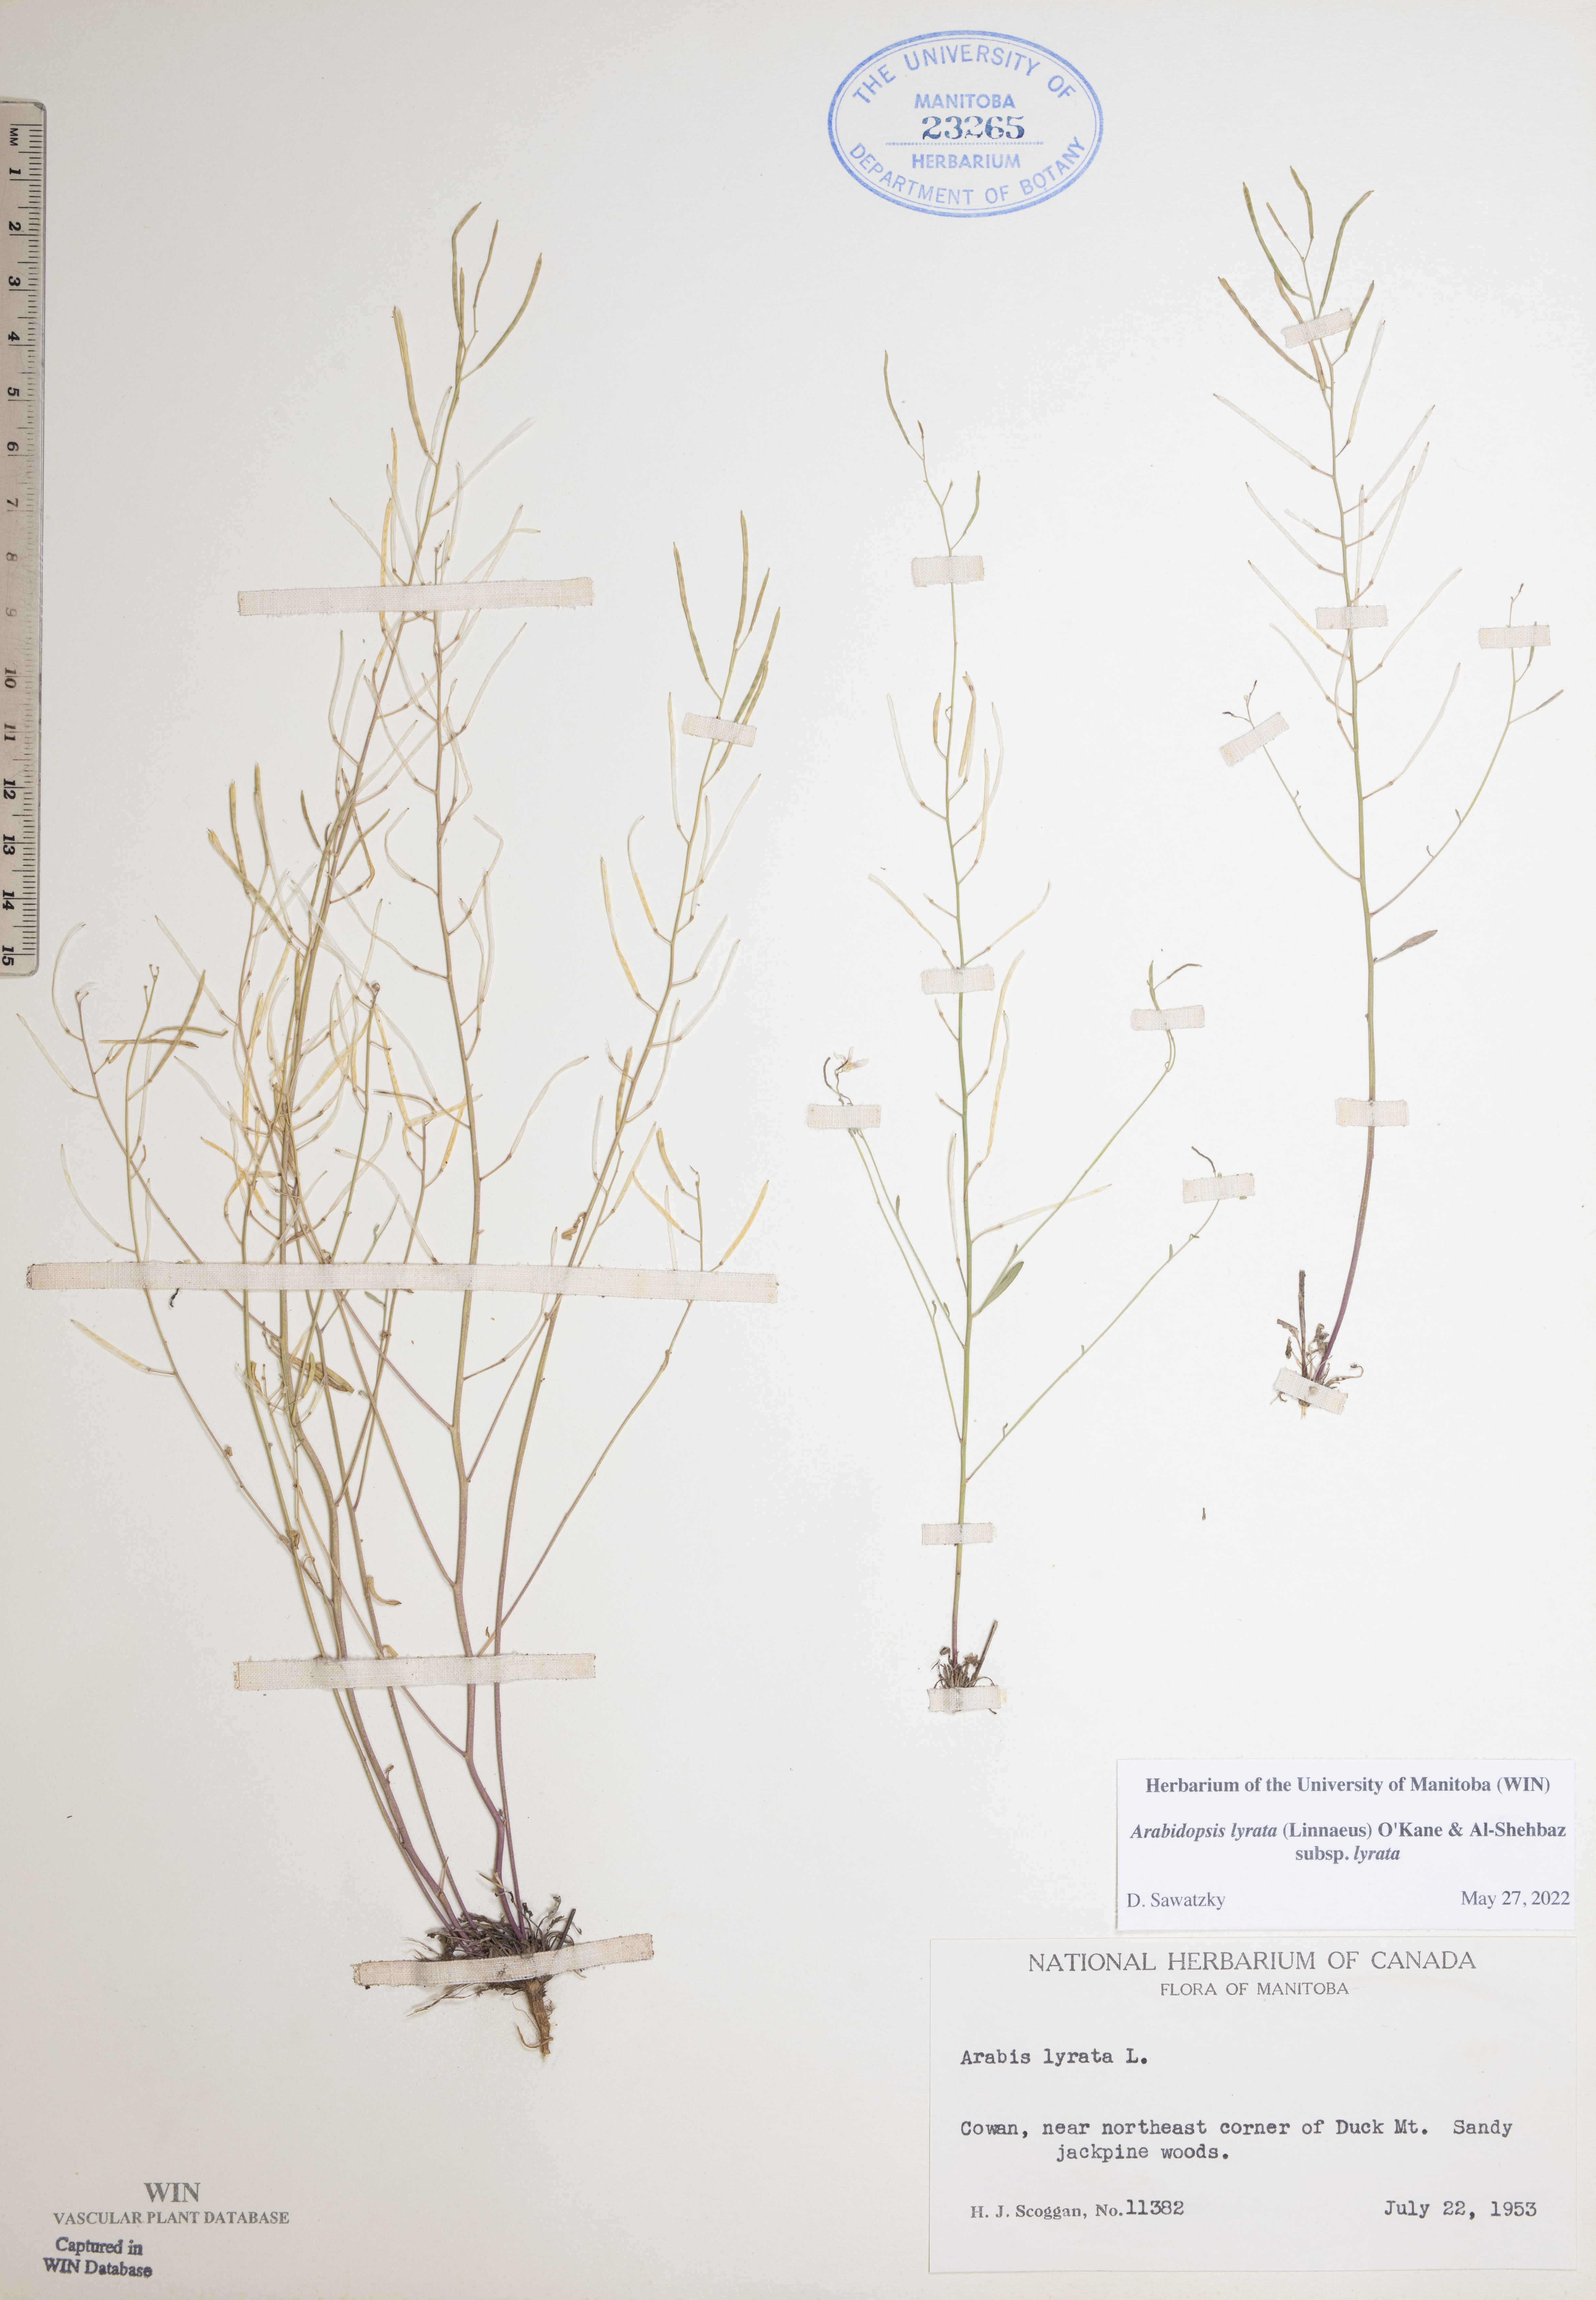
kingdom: Plantae
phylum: Tracheophyta
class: Magnoliopsida
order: Brassicales
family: Brassicaceae
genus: Arabidopsis
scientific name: Arabidopsis lyrata
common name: Lyrate rockcress
